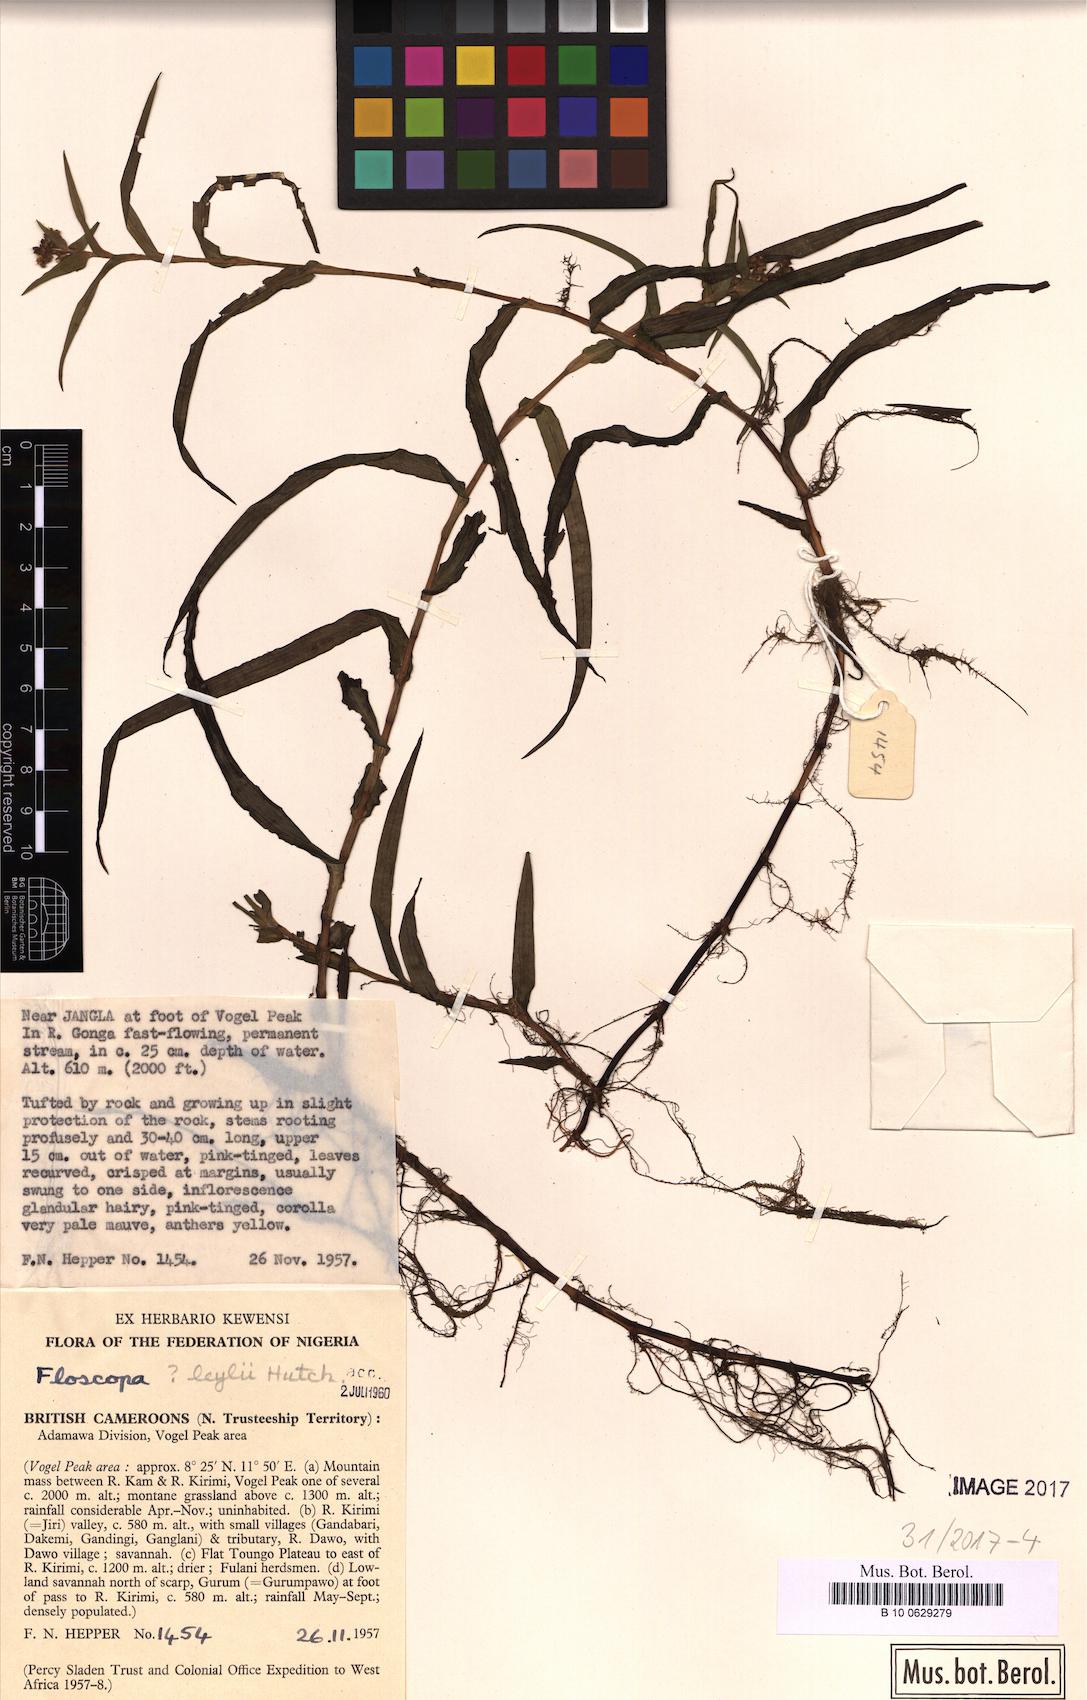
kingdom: Plantae
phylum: Tracheophyta
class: Liliopsida
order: Commelinales
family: Commelinaceae
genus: Floscopa
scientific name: Floscopa
